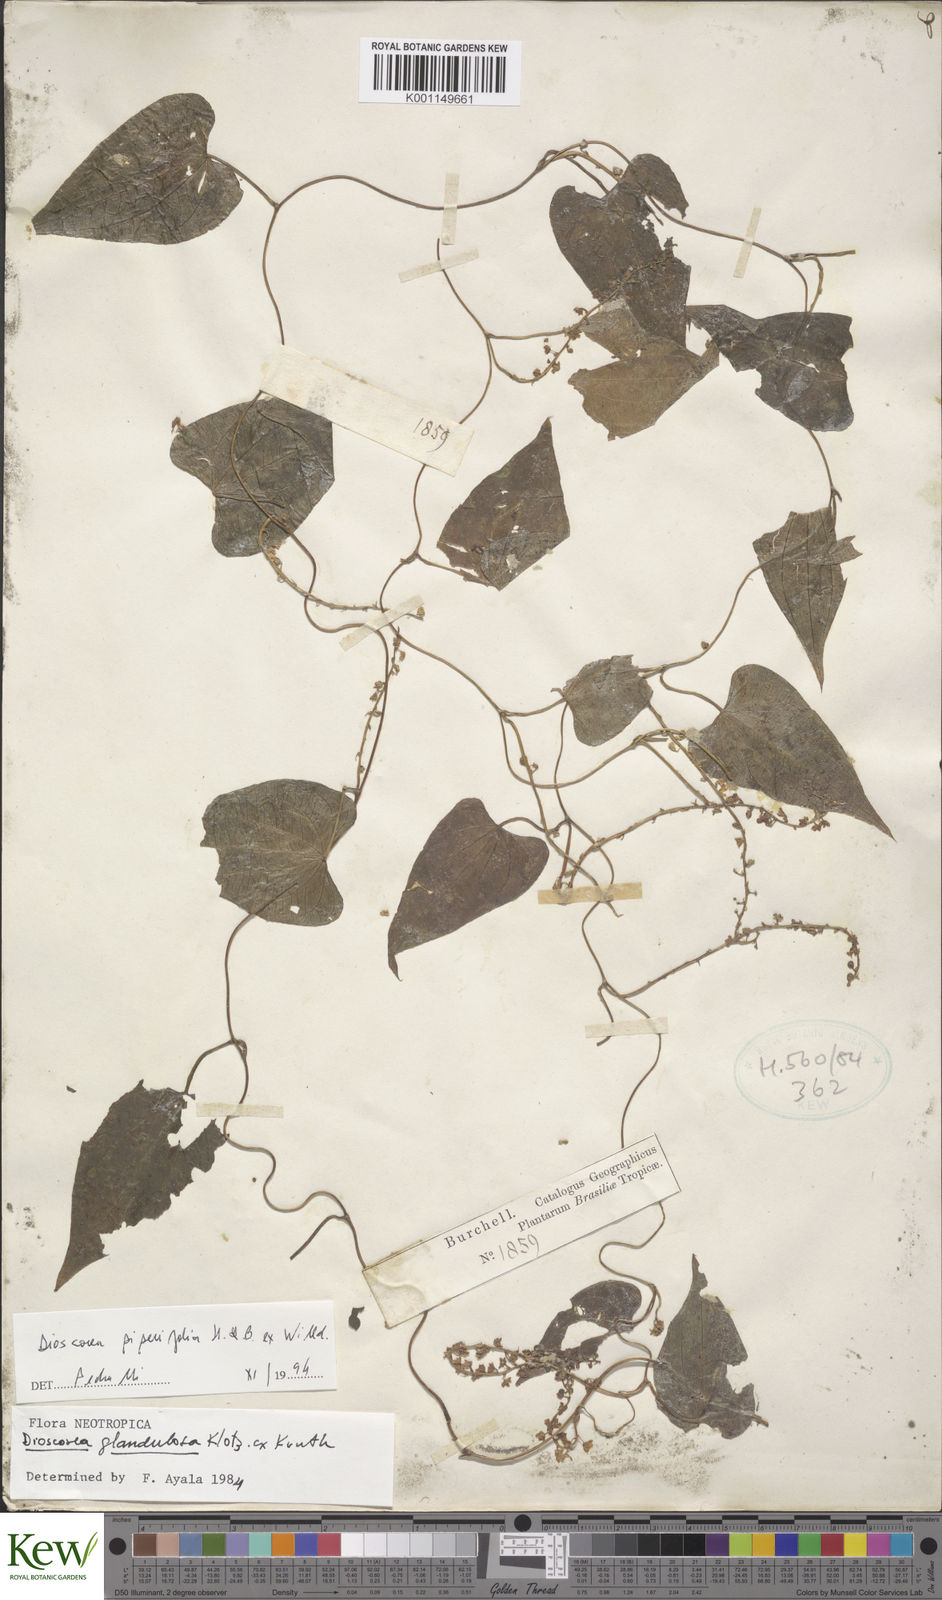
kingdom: Plantae
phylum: Tracheophyta
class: Liliopsida
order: Dioscoreales
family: Dioscoreaceae
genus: Dioscorea
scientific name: Dioscorea glandulosa
